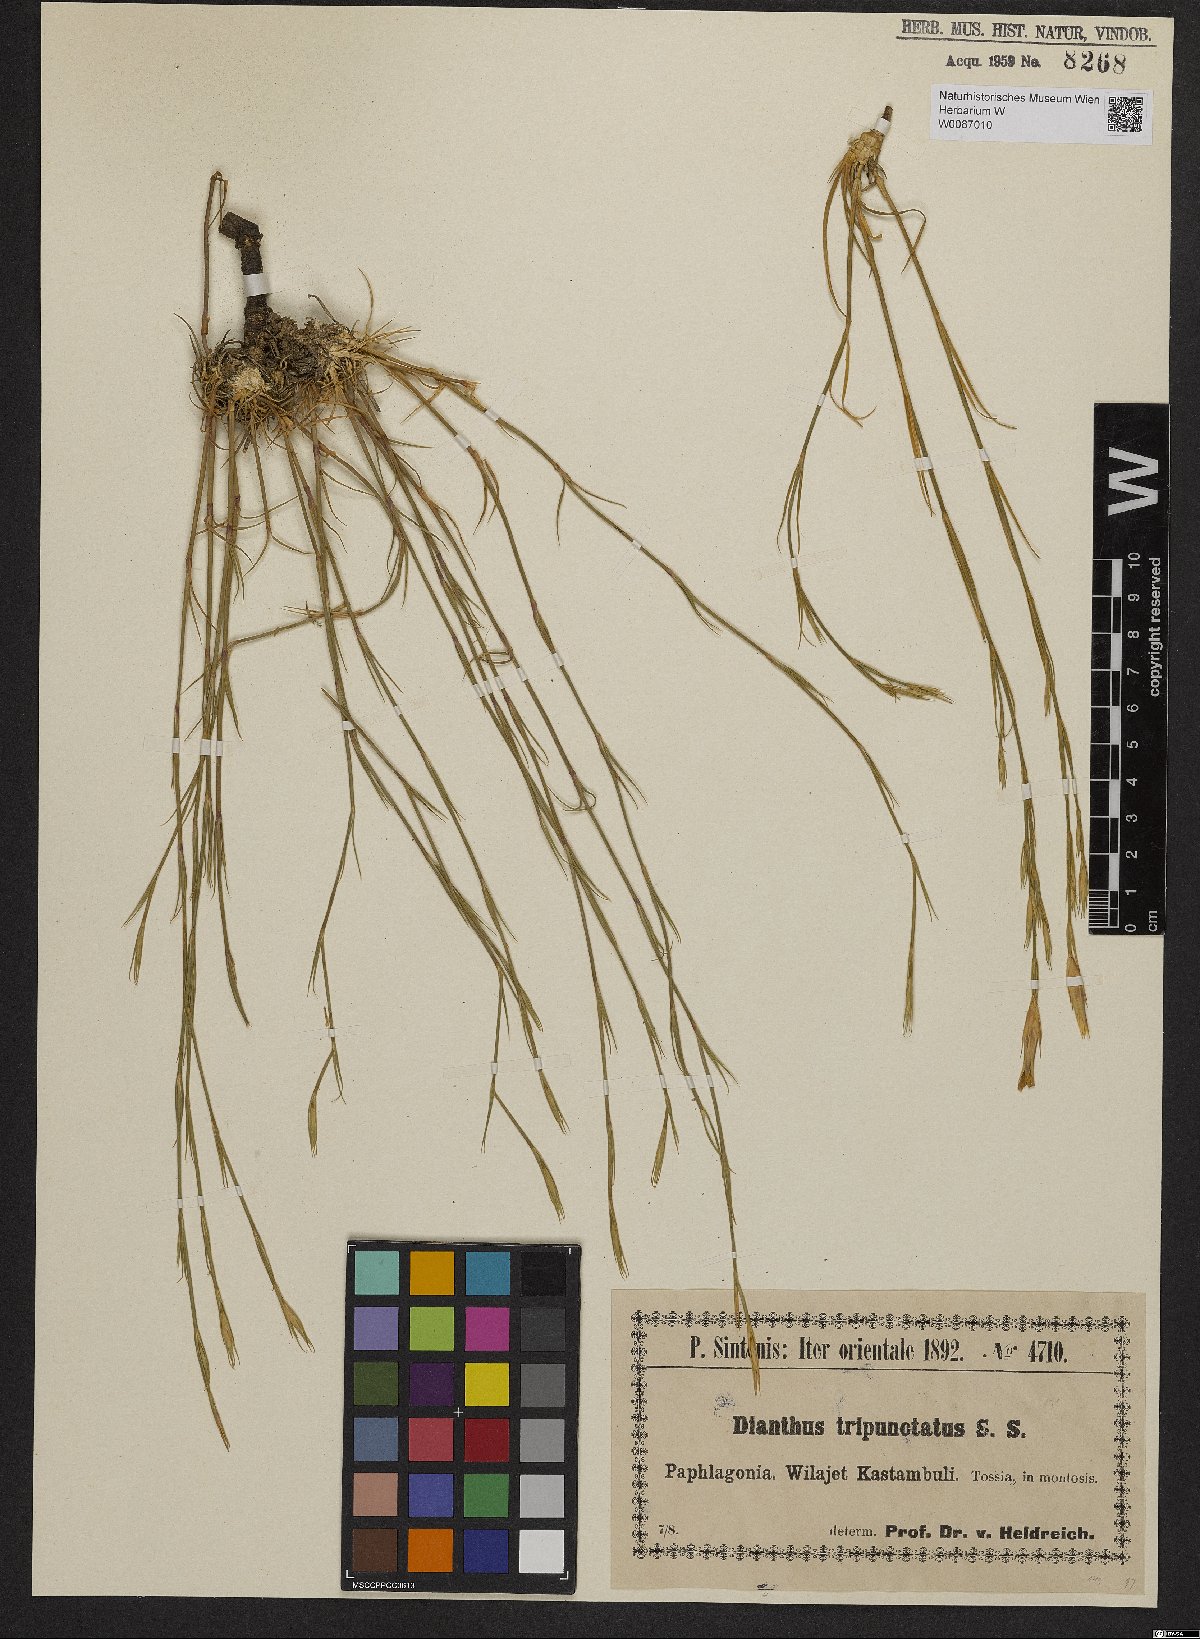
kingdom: Plantae
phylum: Tracheophyta
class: Magnoliopsida
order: Caryophyllales
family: Caryophyllaceae
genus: Dianthus
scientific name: Dianthus tripunctatus
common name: Three-spotted pink
